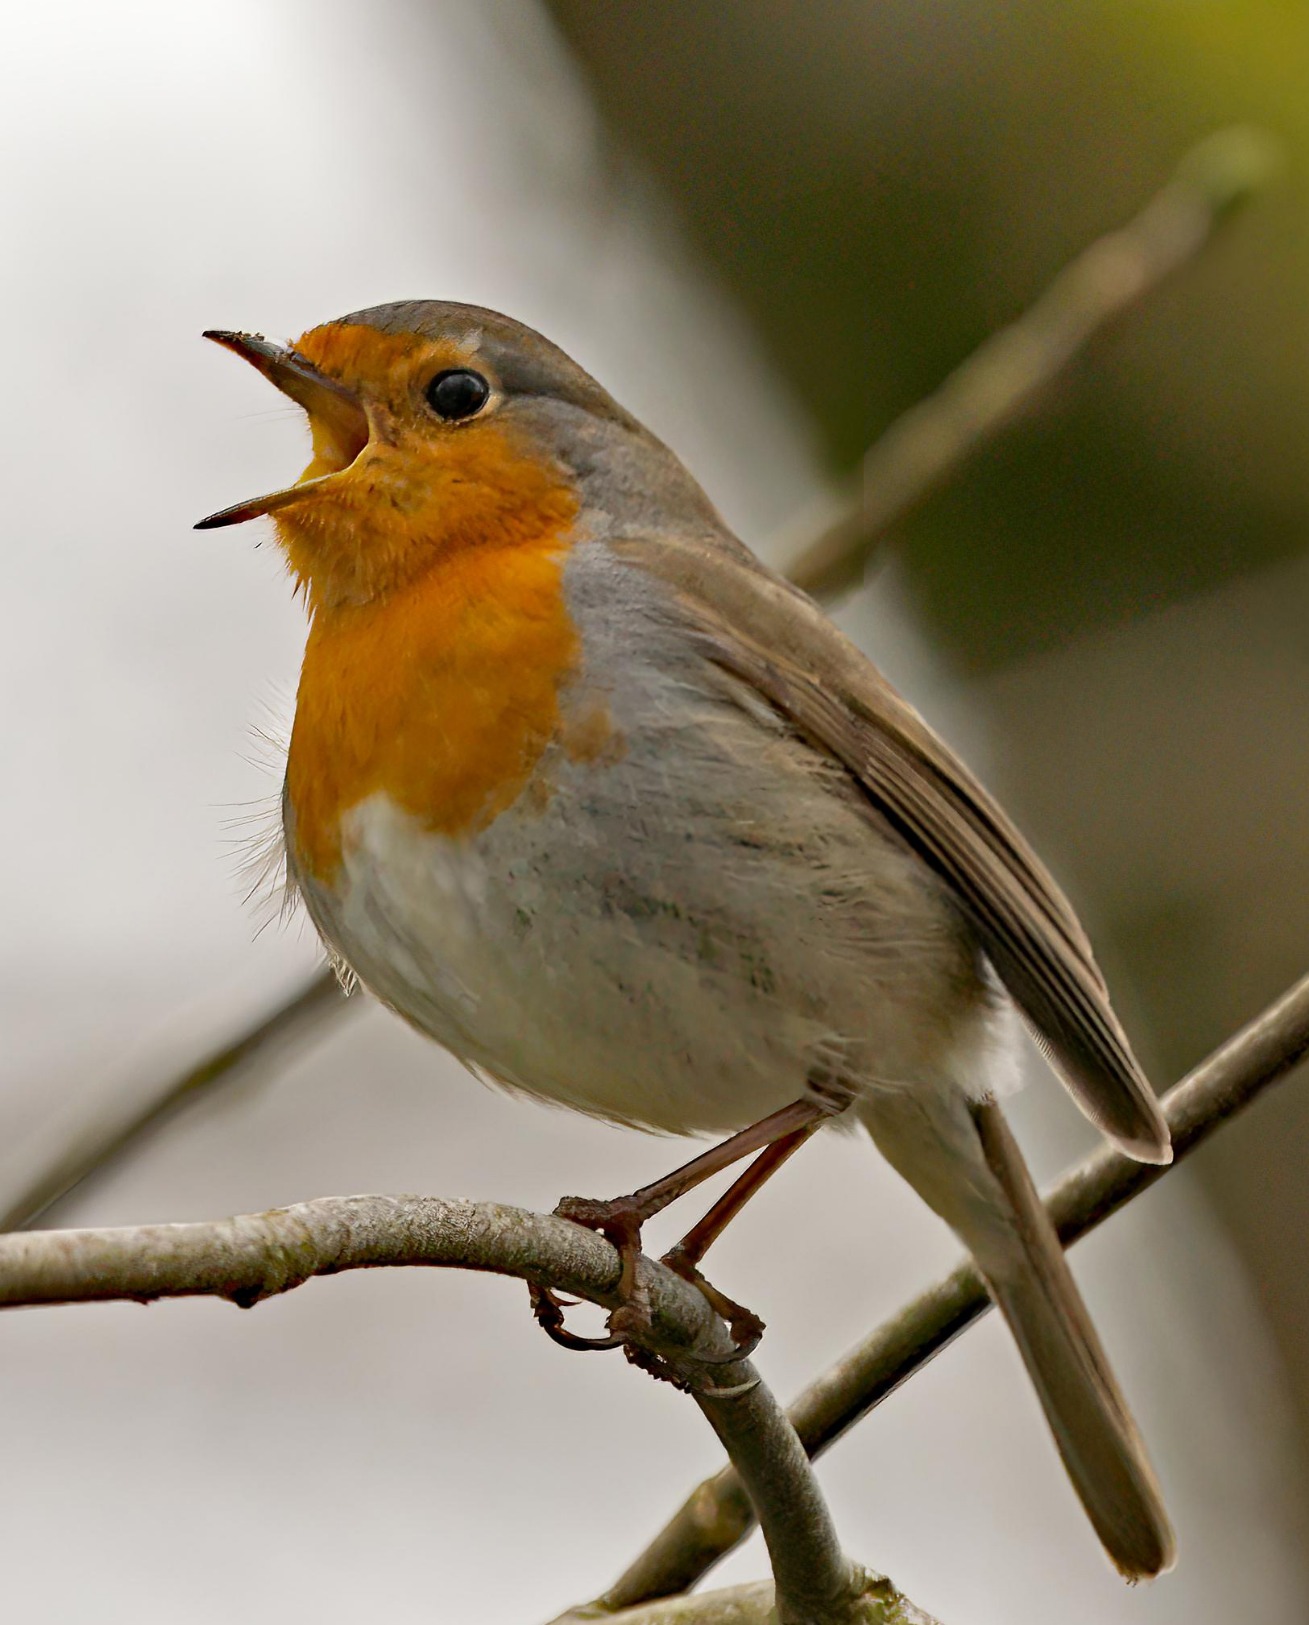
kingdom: Animalia
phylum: Chordata
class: Aves
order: Passeriformes
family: Muscicapidae
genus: Erithacus
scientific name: Erithacus rubecula
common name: Rødhals/rødkælk
